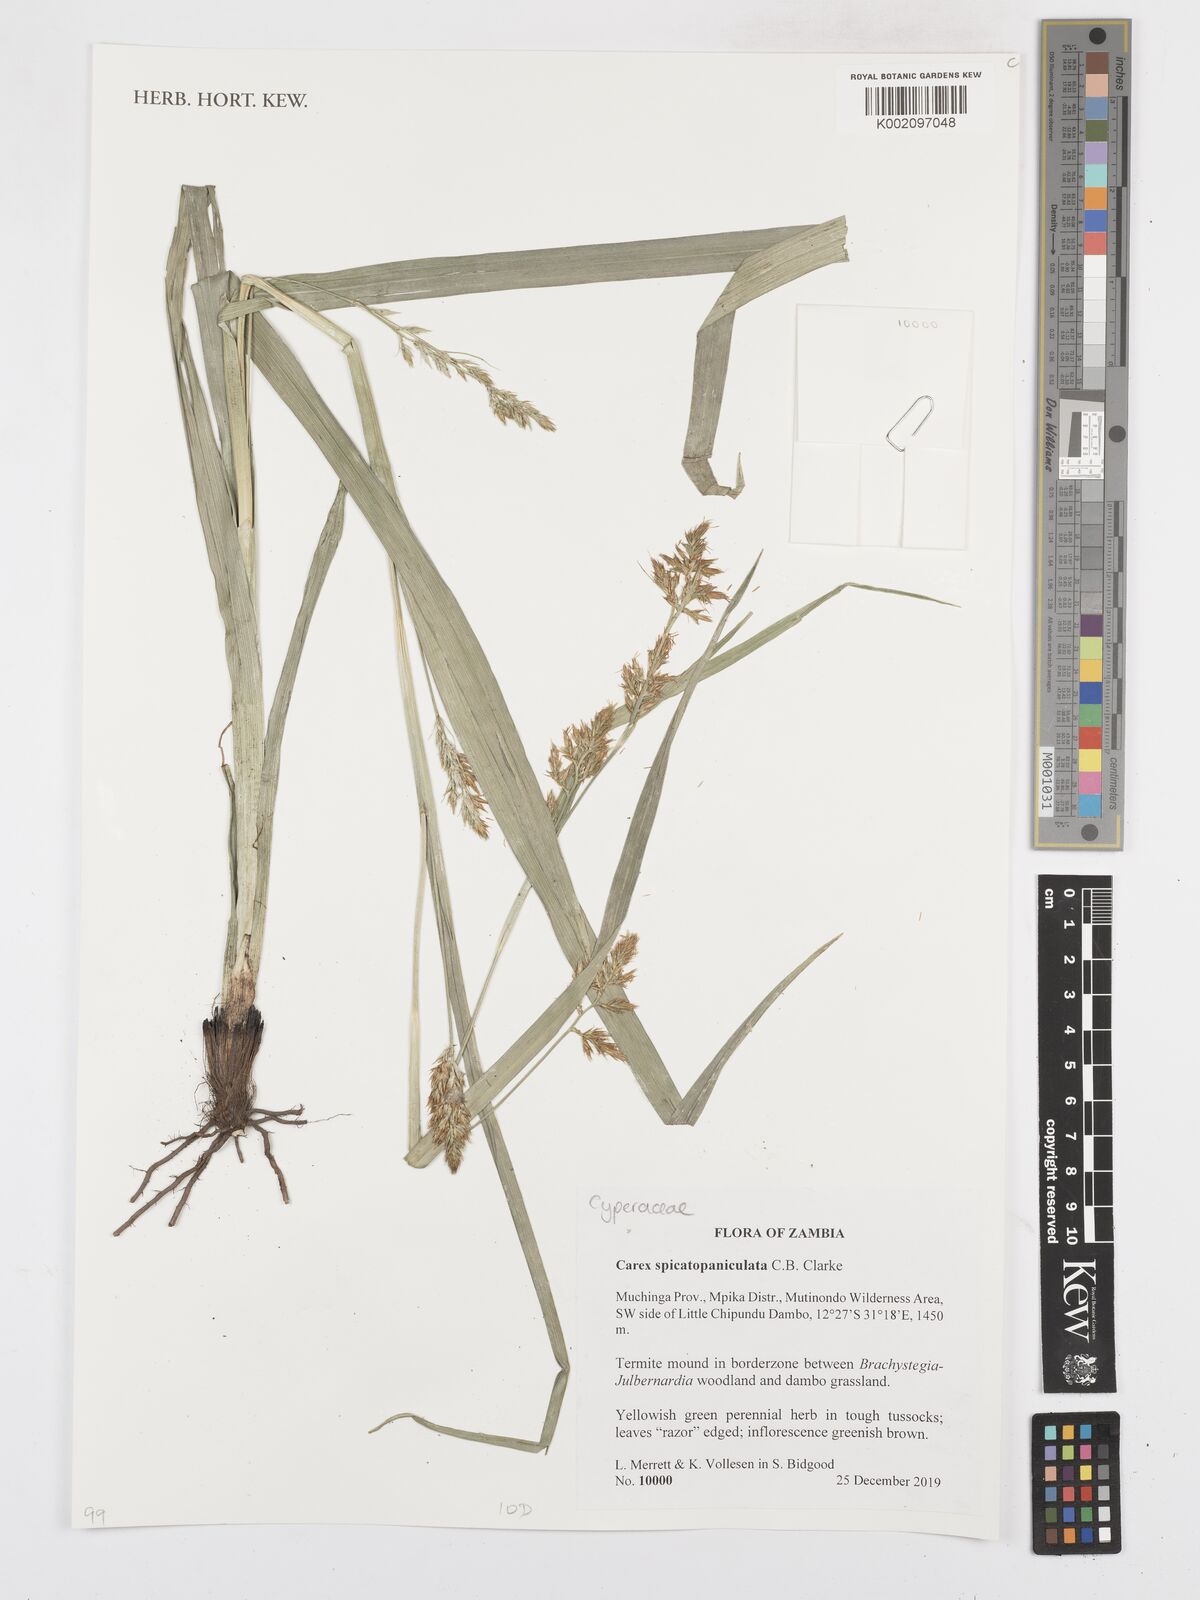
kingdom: Plantae
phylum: Tracheophyta
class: Liliopsida
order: Poales
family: Cyperaceae
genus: Carex
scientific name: Carex spicatopaniculata
